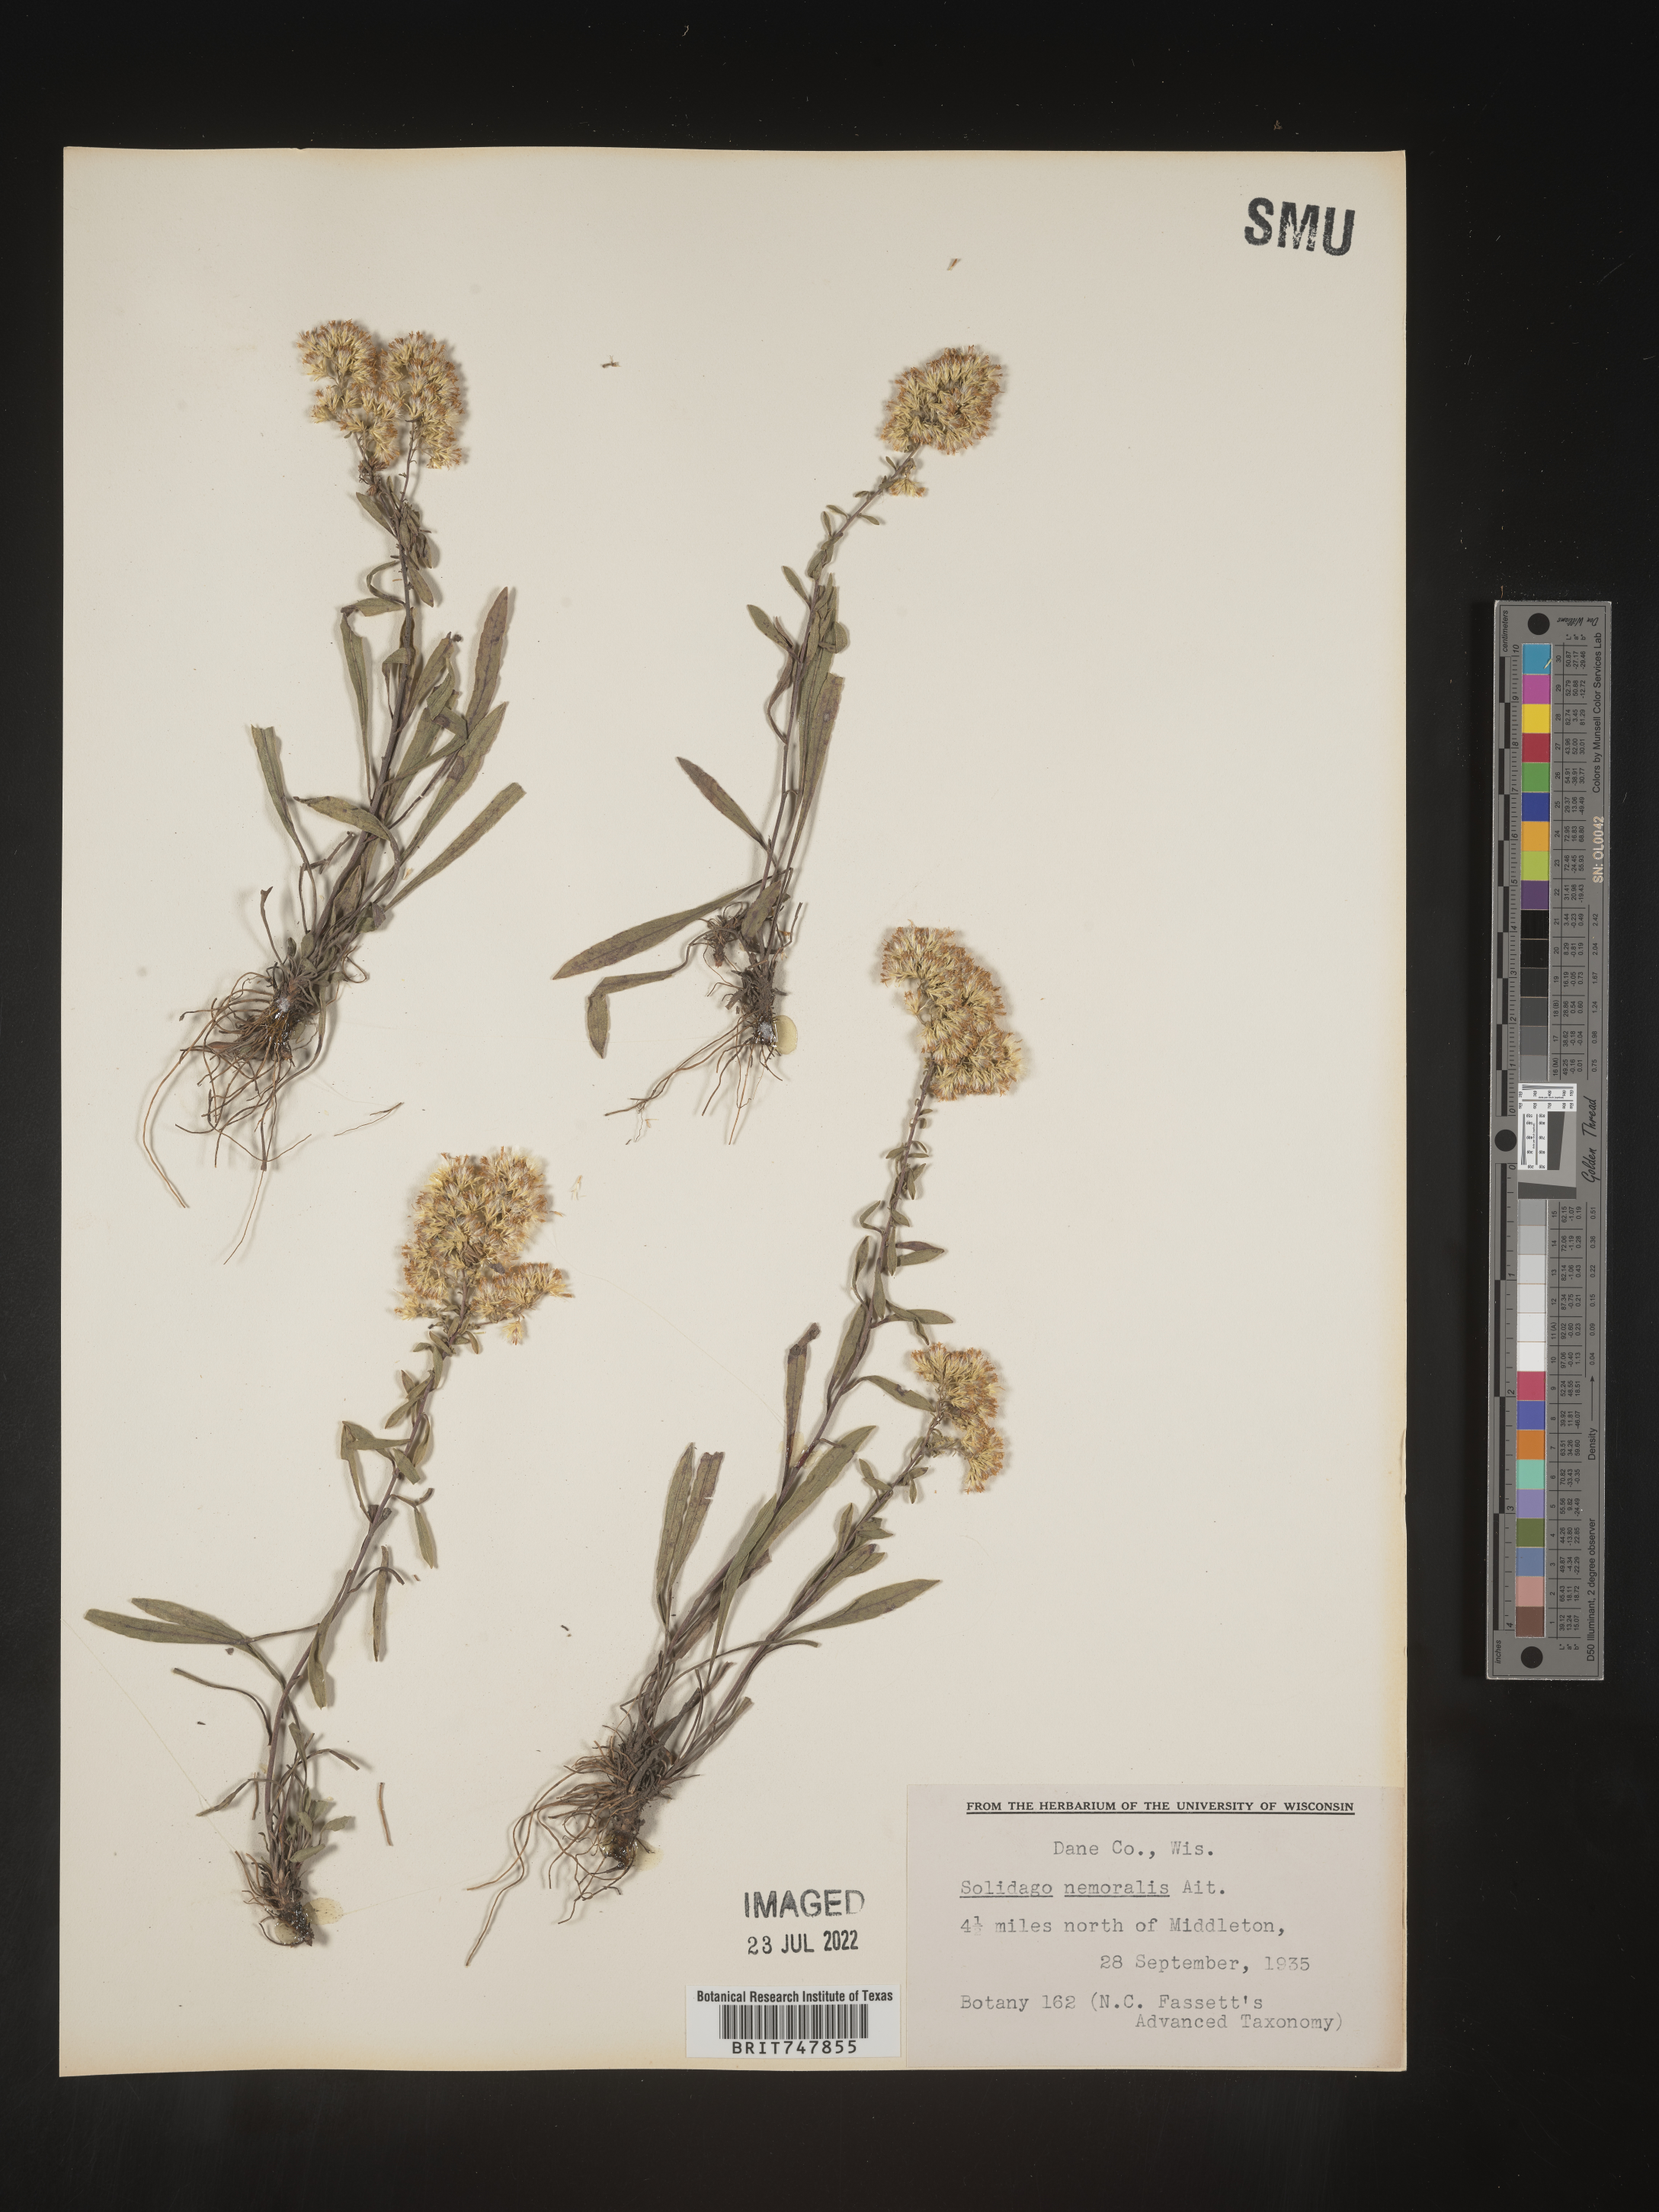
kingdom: Plantae
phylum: Tracheophyta
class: Magnoliopsida
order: Asterales
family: Asteraceae
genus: Solidago
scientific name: Solidago nemoralis
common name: Grey goldenrod
